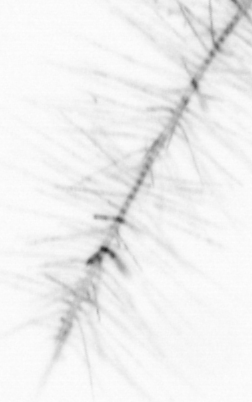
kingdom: Chromista
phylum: Ochrophyta
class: Bacillariophyceae
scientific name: Bacillariophyceae
